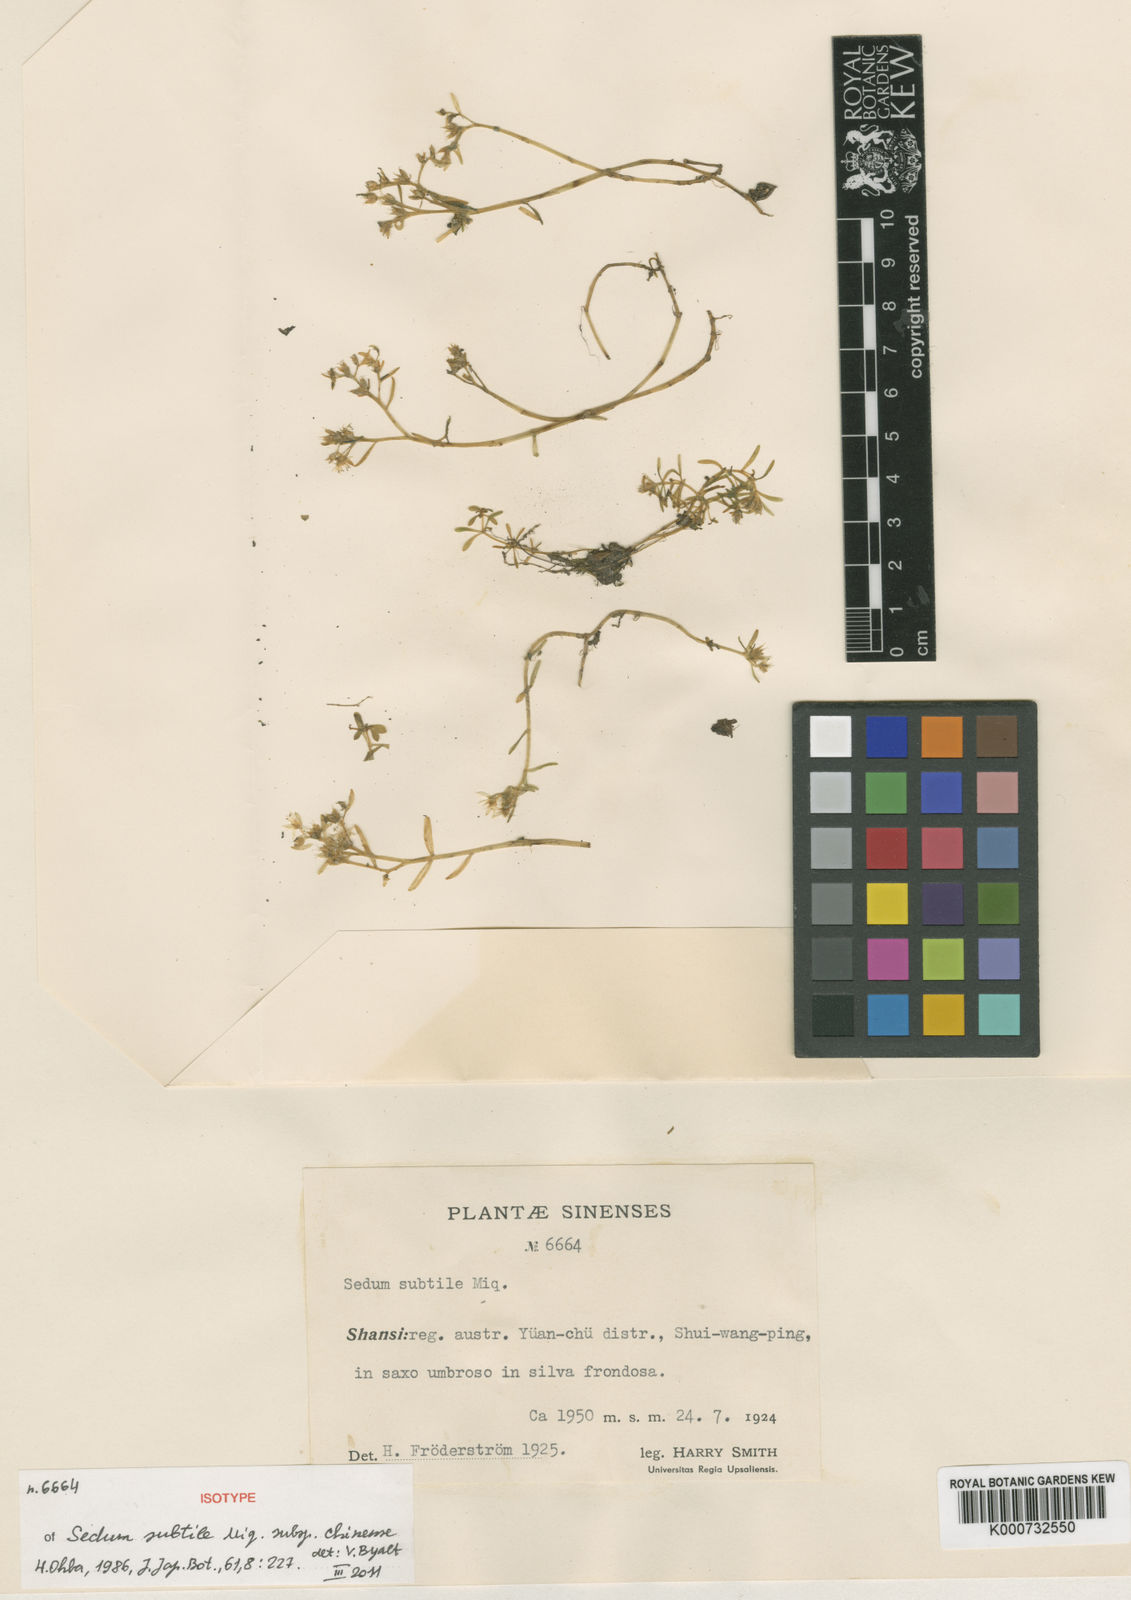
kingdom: Plantae
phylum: Tracheophyta
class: Magnoliopsida
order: Saxifragales
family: Crassulaceae
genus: Sedum
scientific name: Sedum subtile
